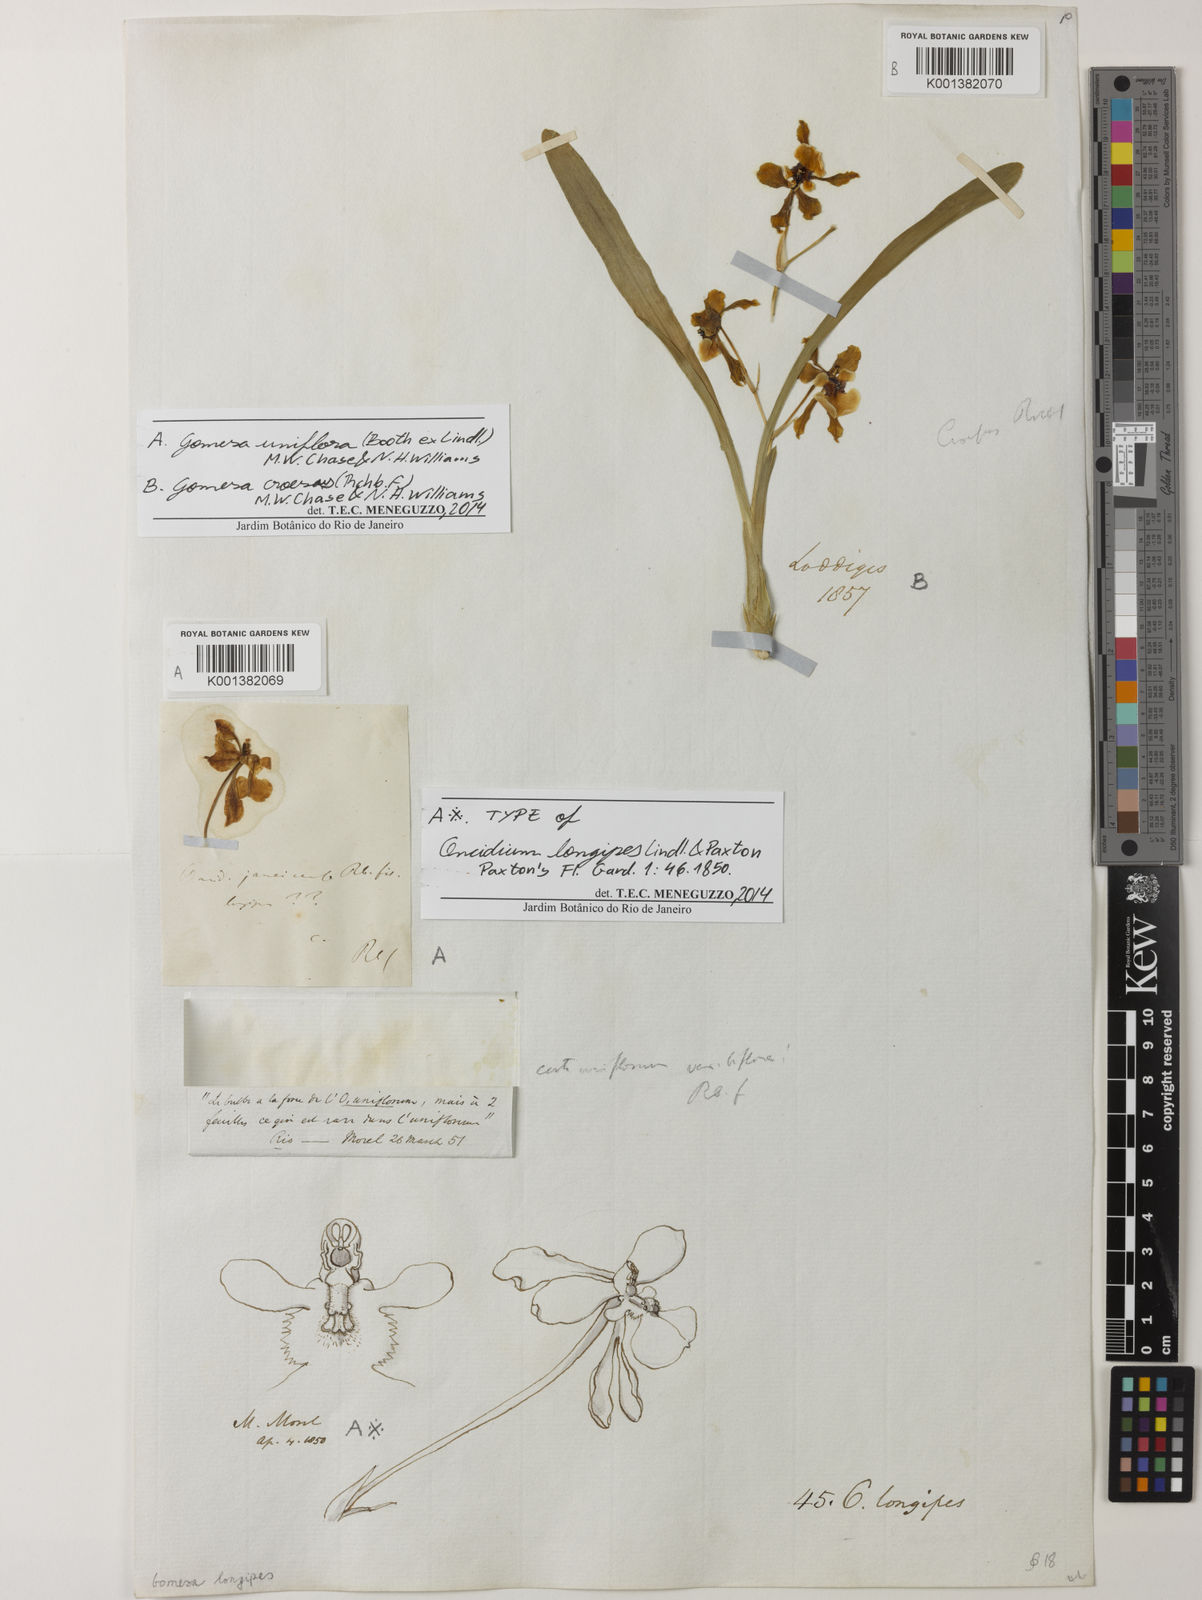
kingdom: Plantae
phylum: Tracheophyta
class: Liliopsida
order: Asparagales
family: Orchidaceae
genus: Gomesa
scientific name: Gomesa croesus
